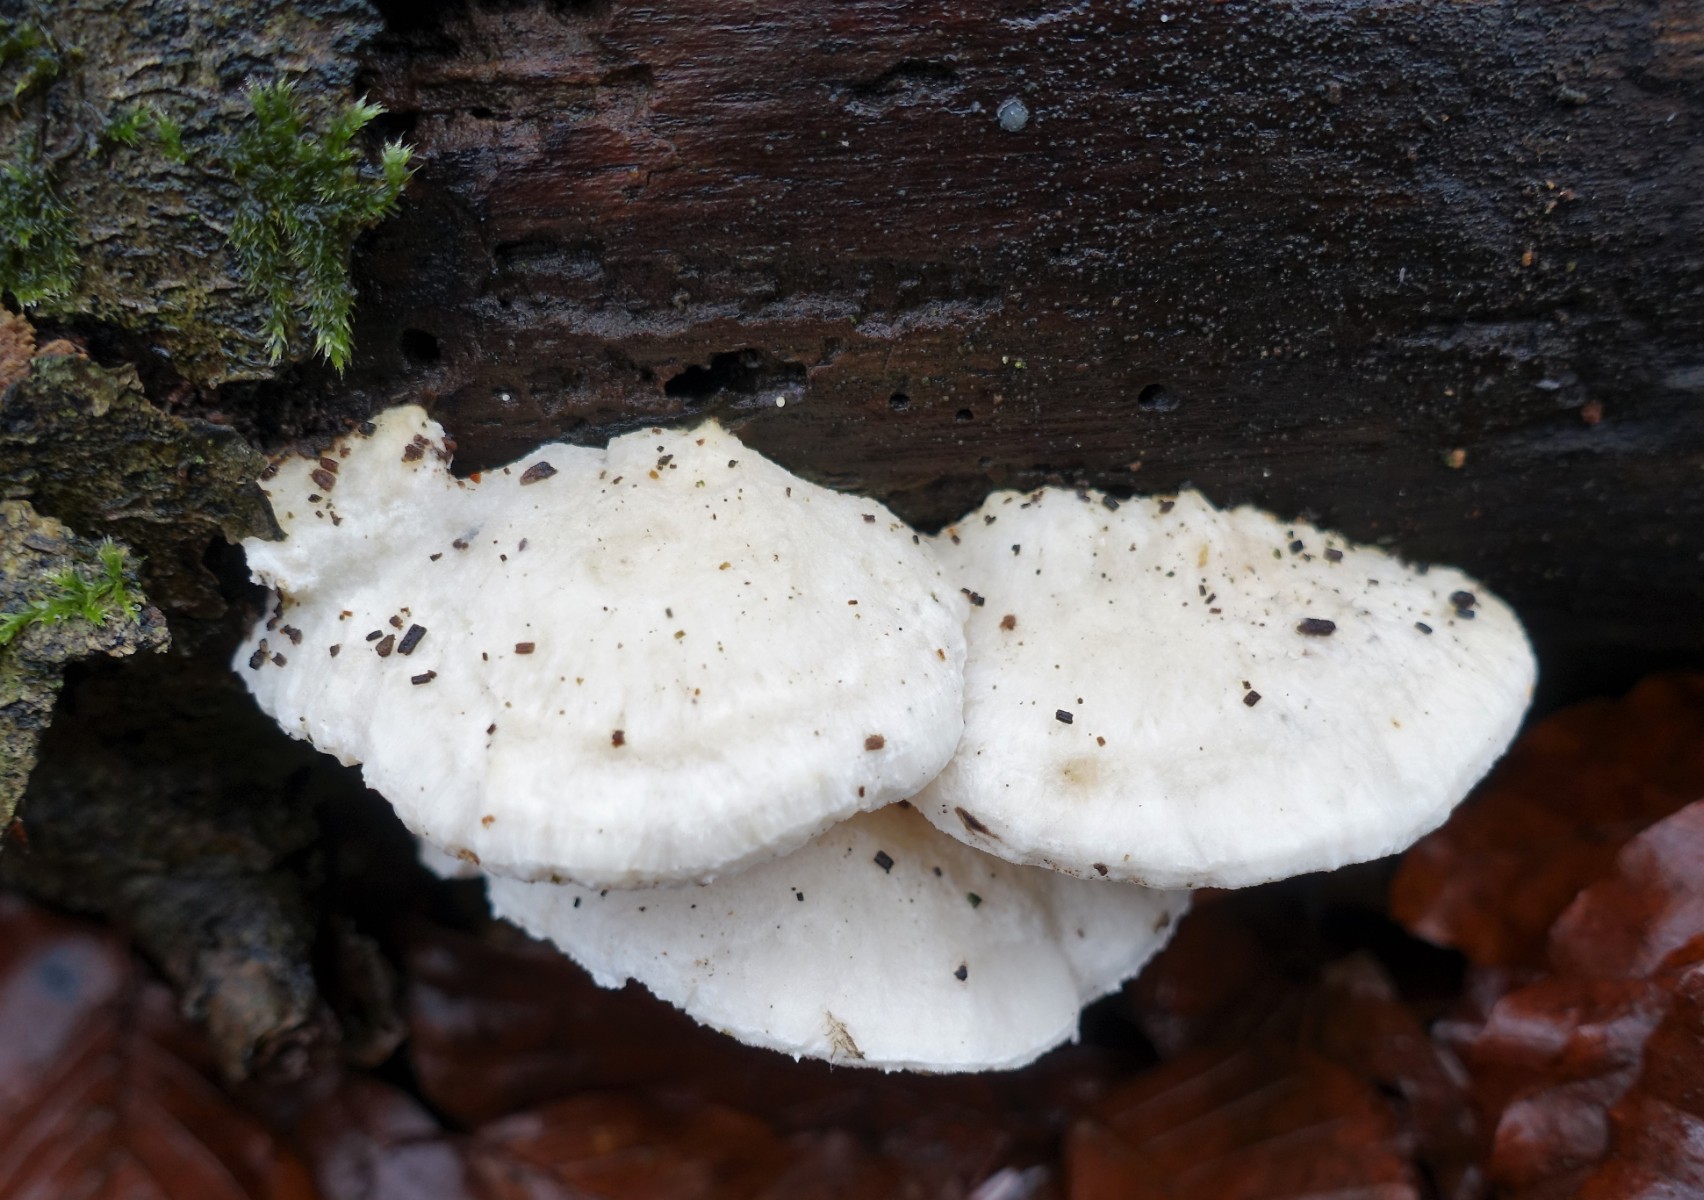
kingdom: Fungi
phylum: Basidiomycota
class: Agaricomycetes
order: Polyporales
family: Incrustoporiaceae
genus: Tyromyces
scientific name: Tyromyces lacteus
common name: mælkehvid kødporesvamp
